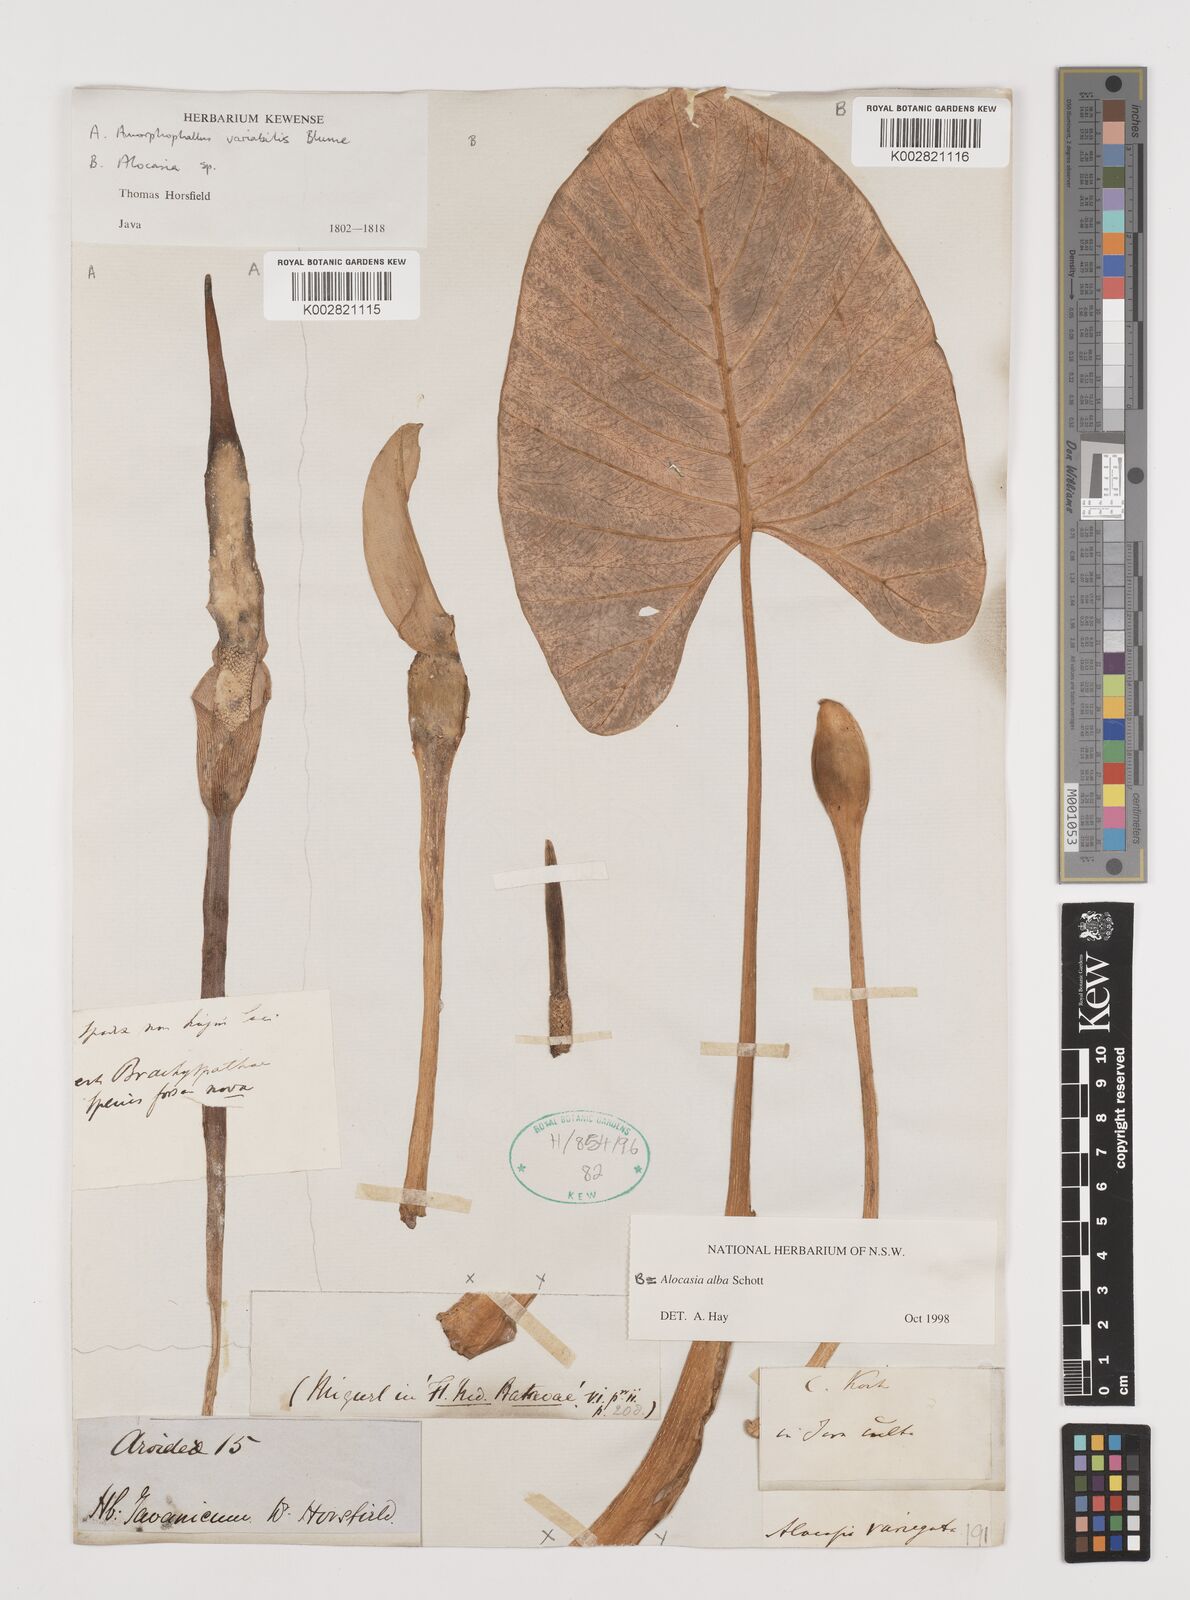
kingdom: Plantae
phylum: Tracheophyta
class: Liliopsida
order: Alismatales
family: Araceae
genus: Alocasia
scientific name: Alocasia alba
